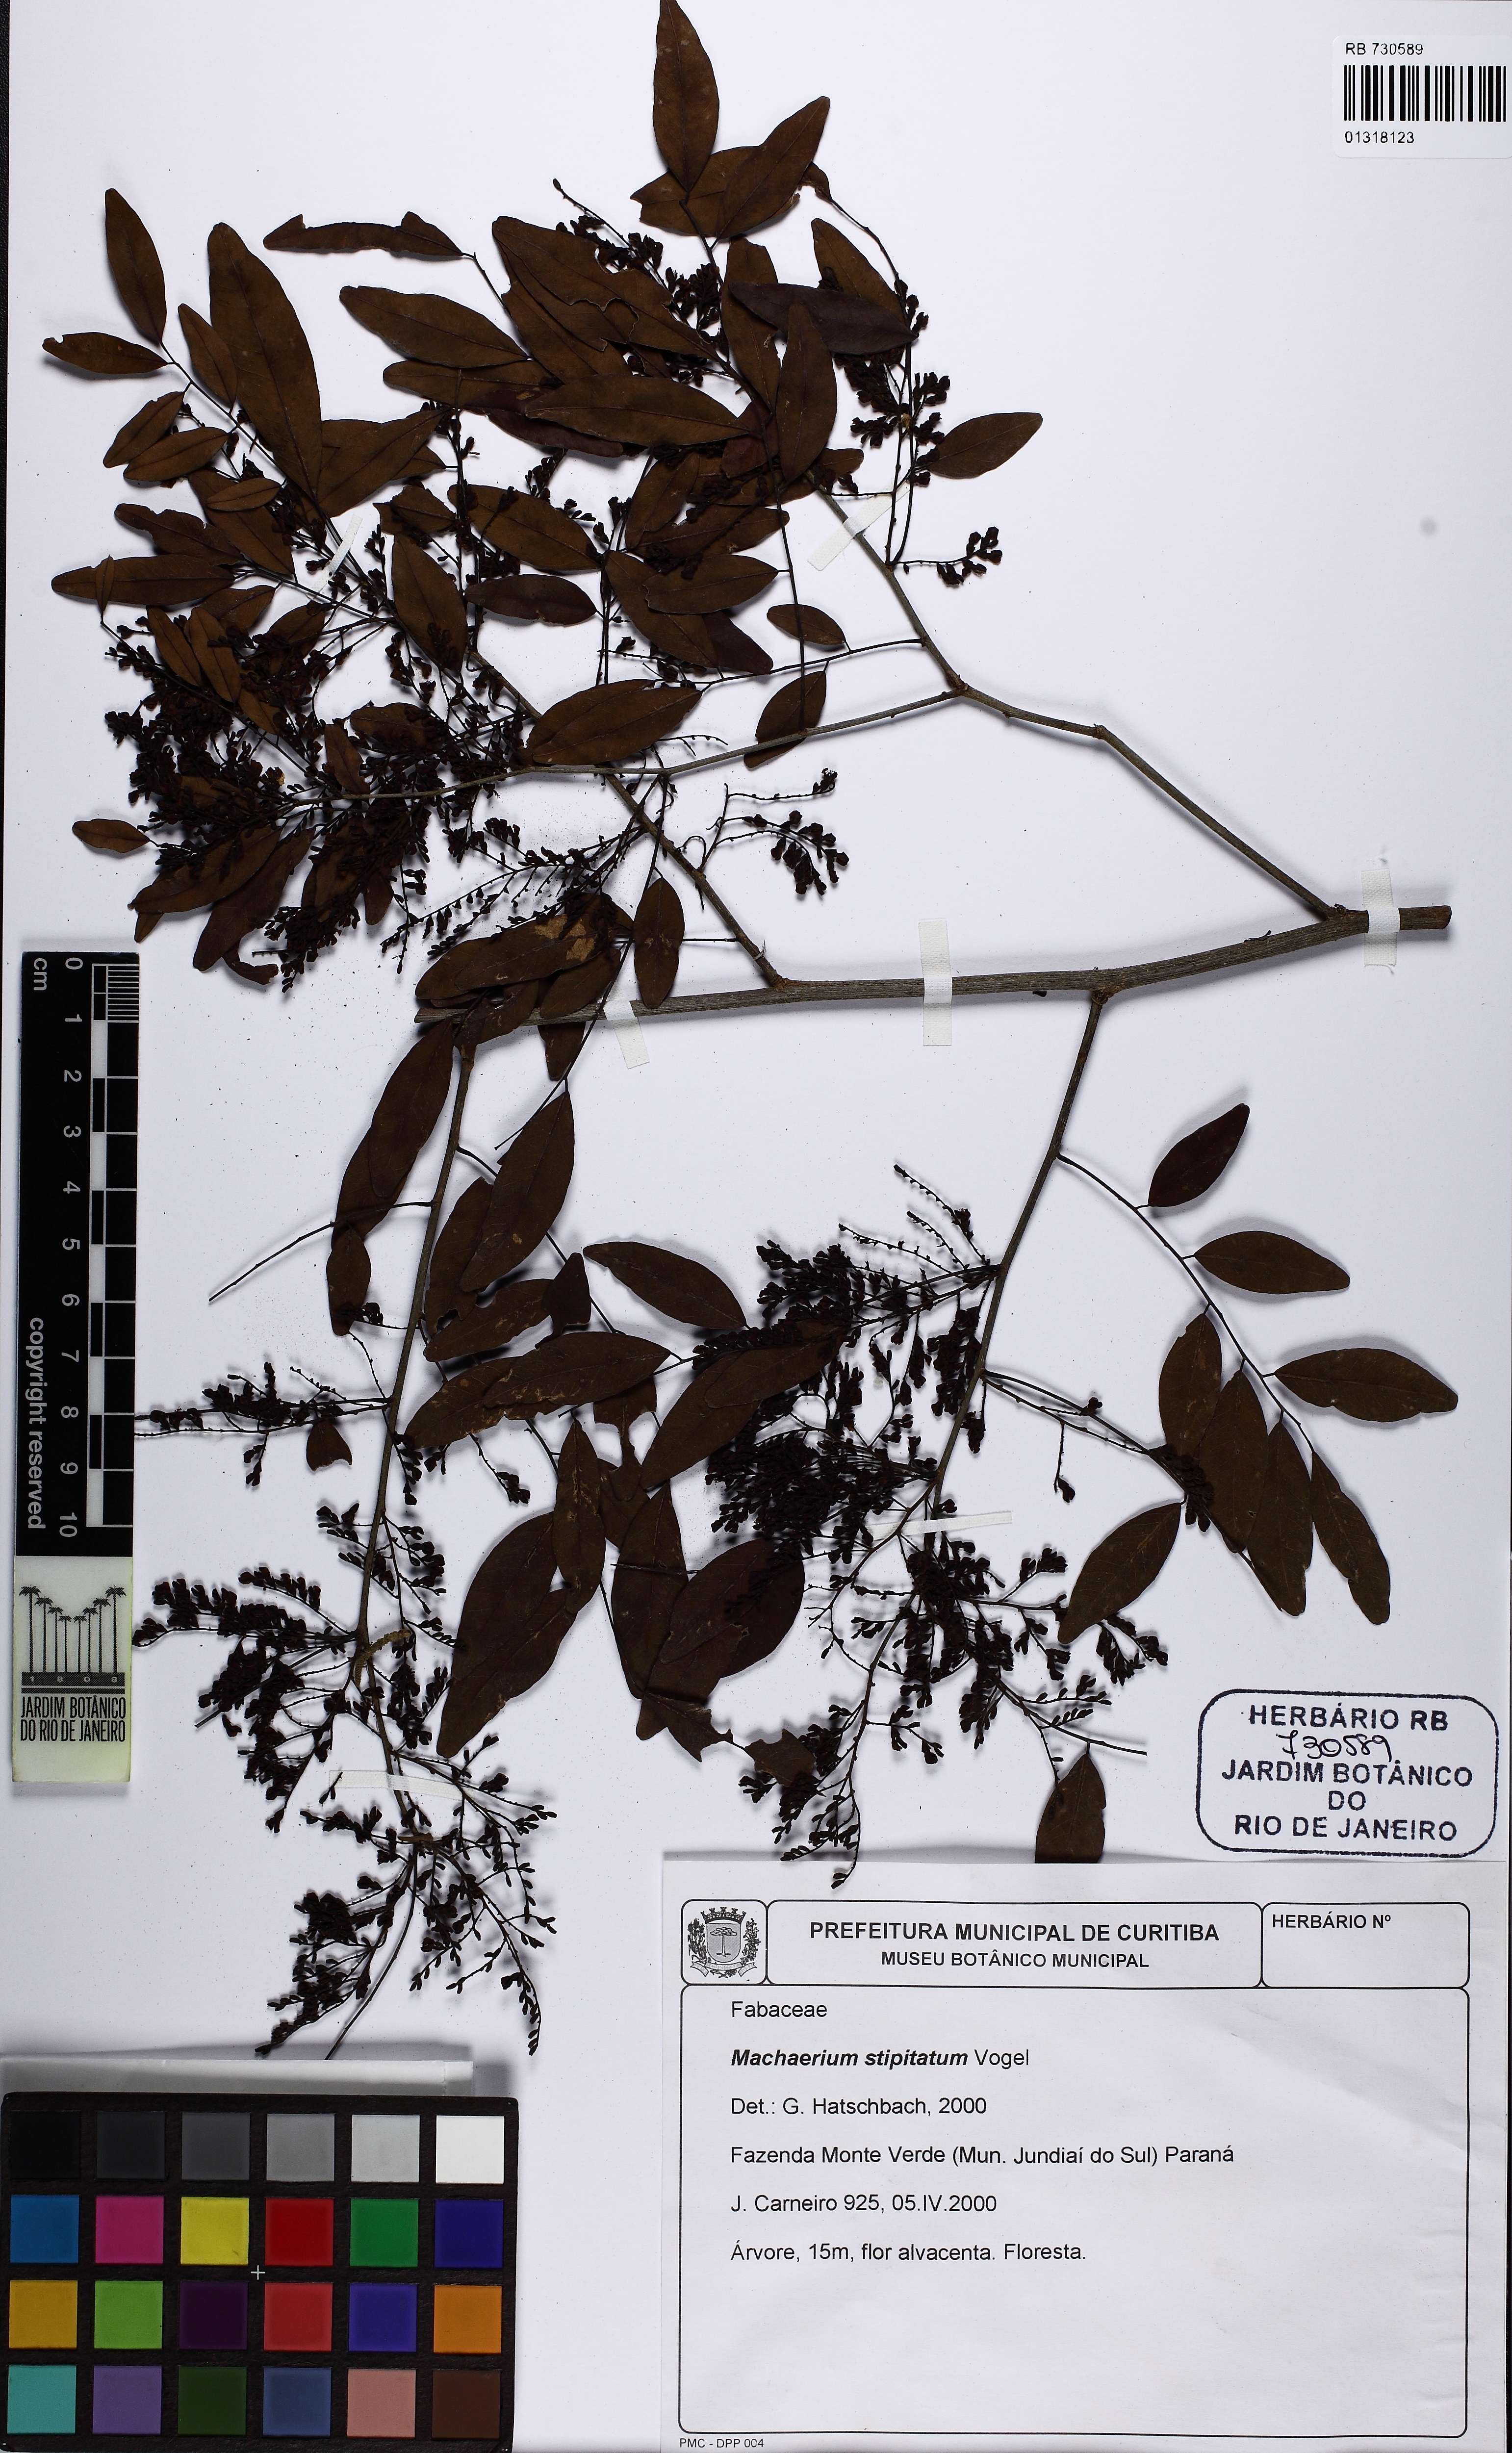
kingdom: Plantae
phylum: Tracheophyta
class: Magnoliopsida
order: Fabales
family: Fabaceae
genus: Machaerium
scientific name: Machaerium stipitatum
